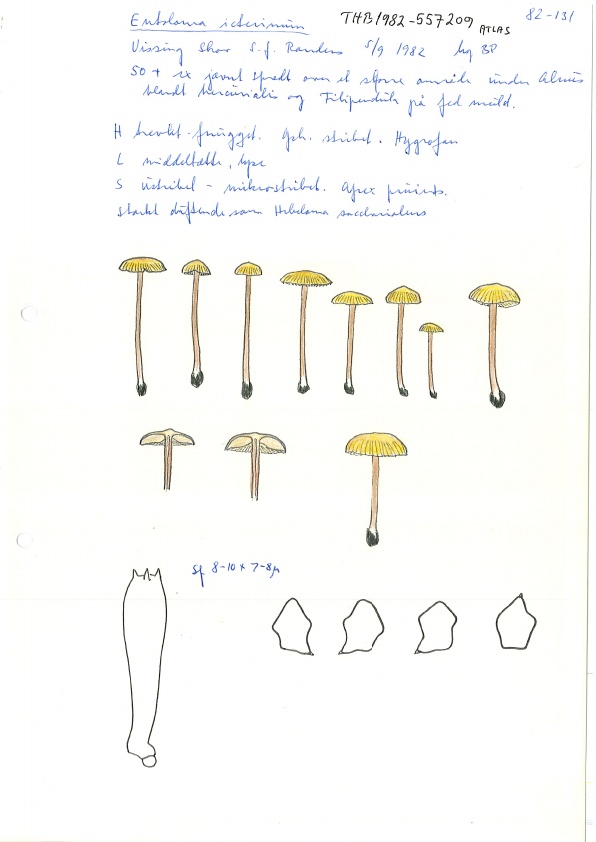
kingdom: Fungi
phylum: Basidiomycota
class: Agaricomycetes
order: Agaricales
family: Entolomataceae
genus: Entoloma
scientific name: Entoloma pleopodium
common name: duftende rødblad
